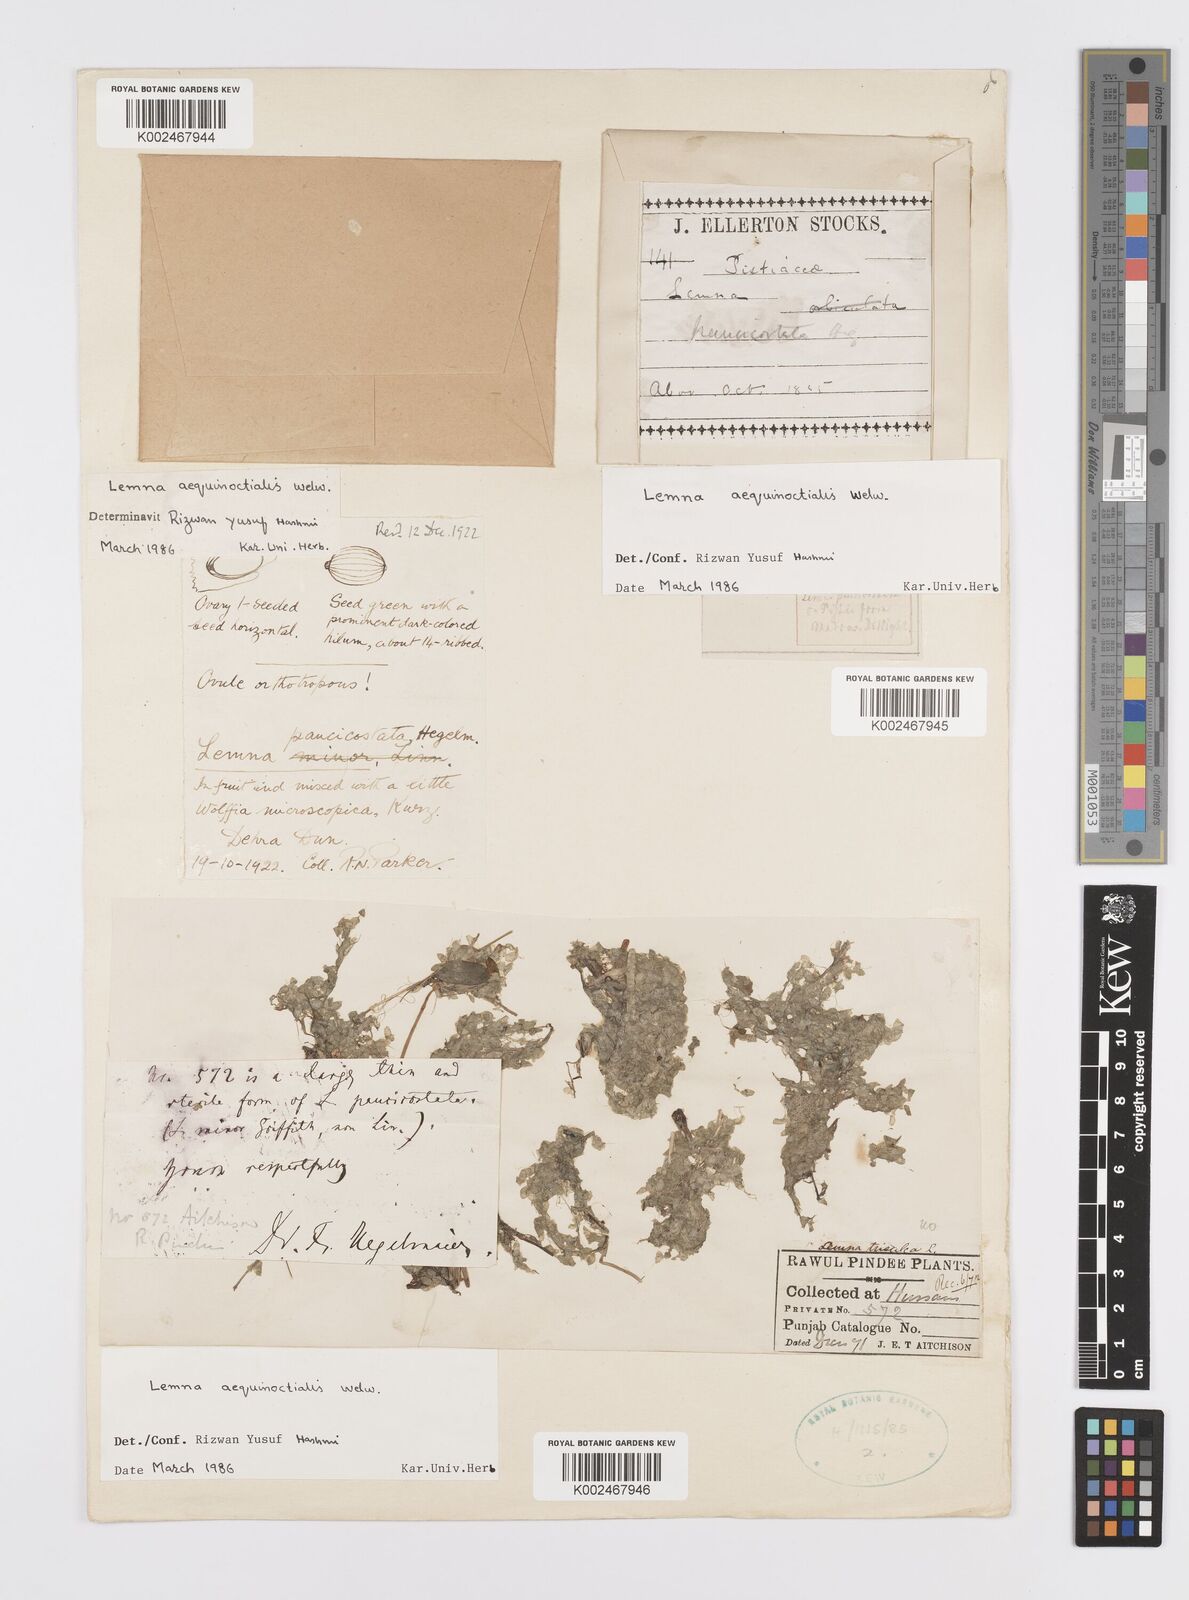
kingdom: Plantae
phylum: Tracheophyta
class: Liliopsida
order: Alismatales
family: Araceae
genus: Lemna
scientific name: Lemna aequinoctialis
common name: Duckweed
